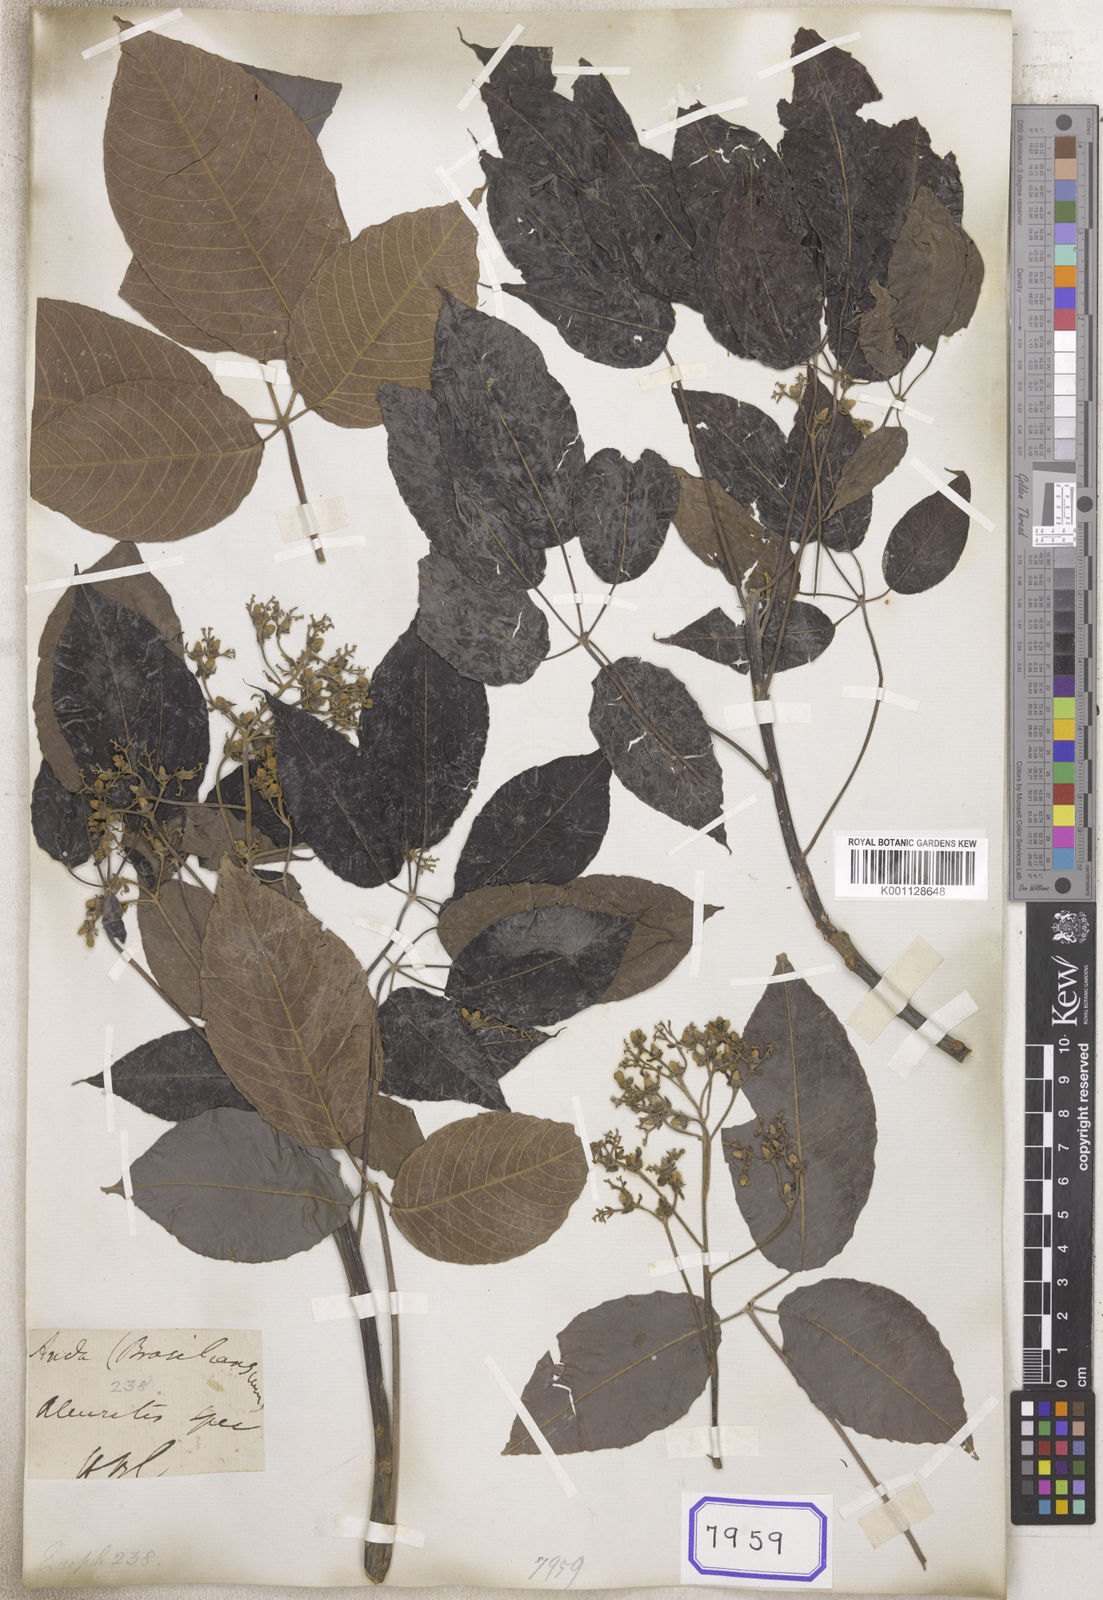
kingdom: Plantae
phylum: Tracheophyta
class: Magnoliopsida
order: Malpighiales
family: Euphorbiaceae
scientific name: Euphorbiaceae
